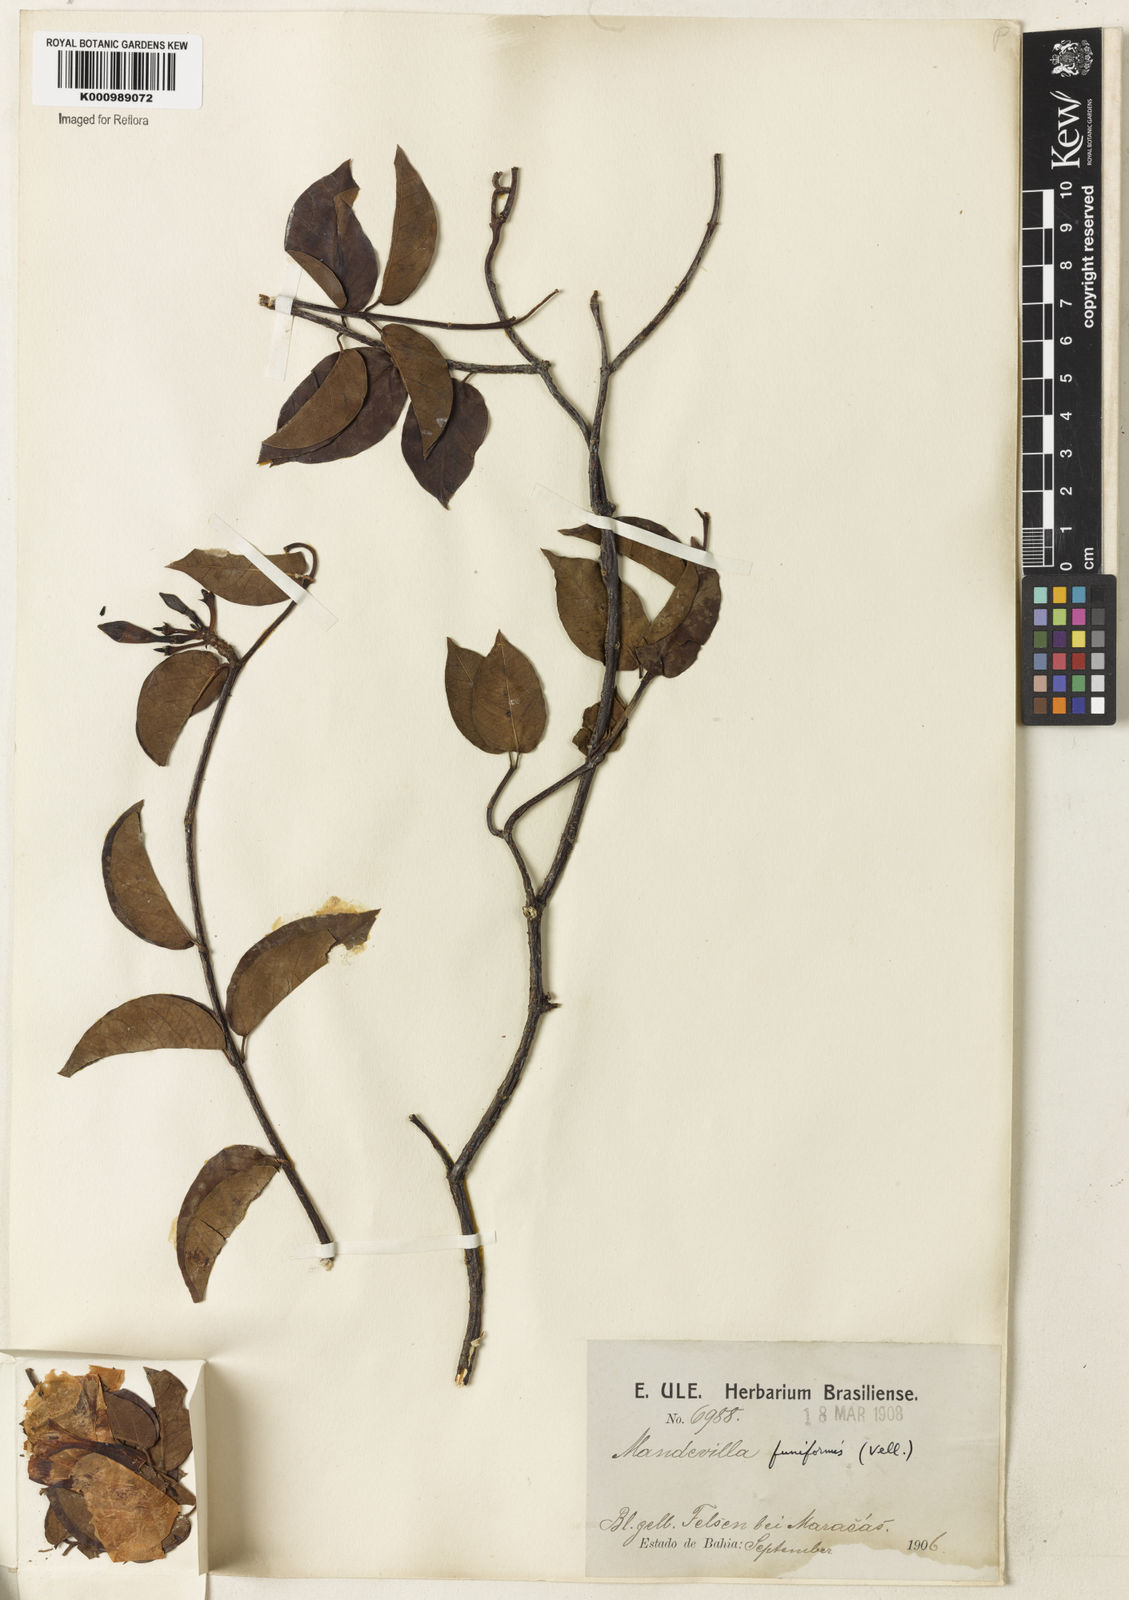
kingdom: Plantae
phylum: Tracheophyta
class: Magnoliopsida
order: Gentianales
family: Apocynaceae
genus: Mandevilla
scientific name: Mandevilla funiformis
